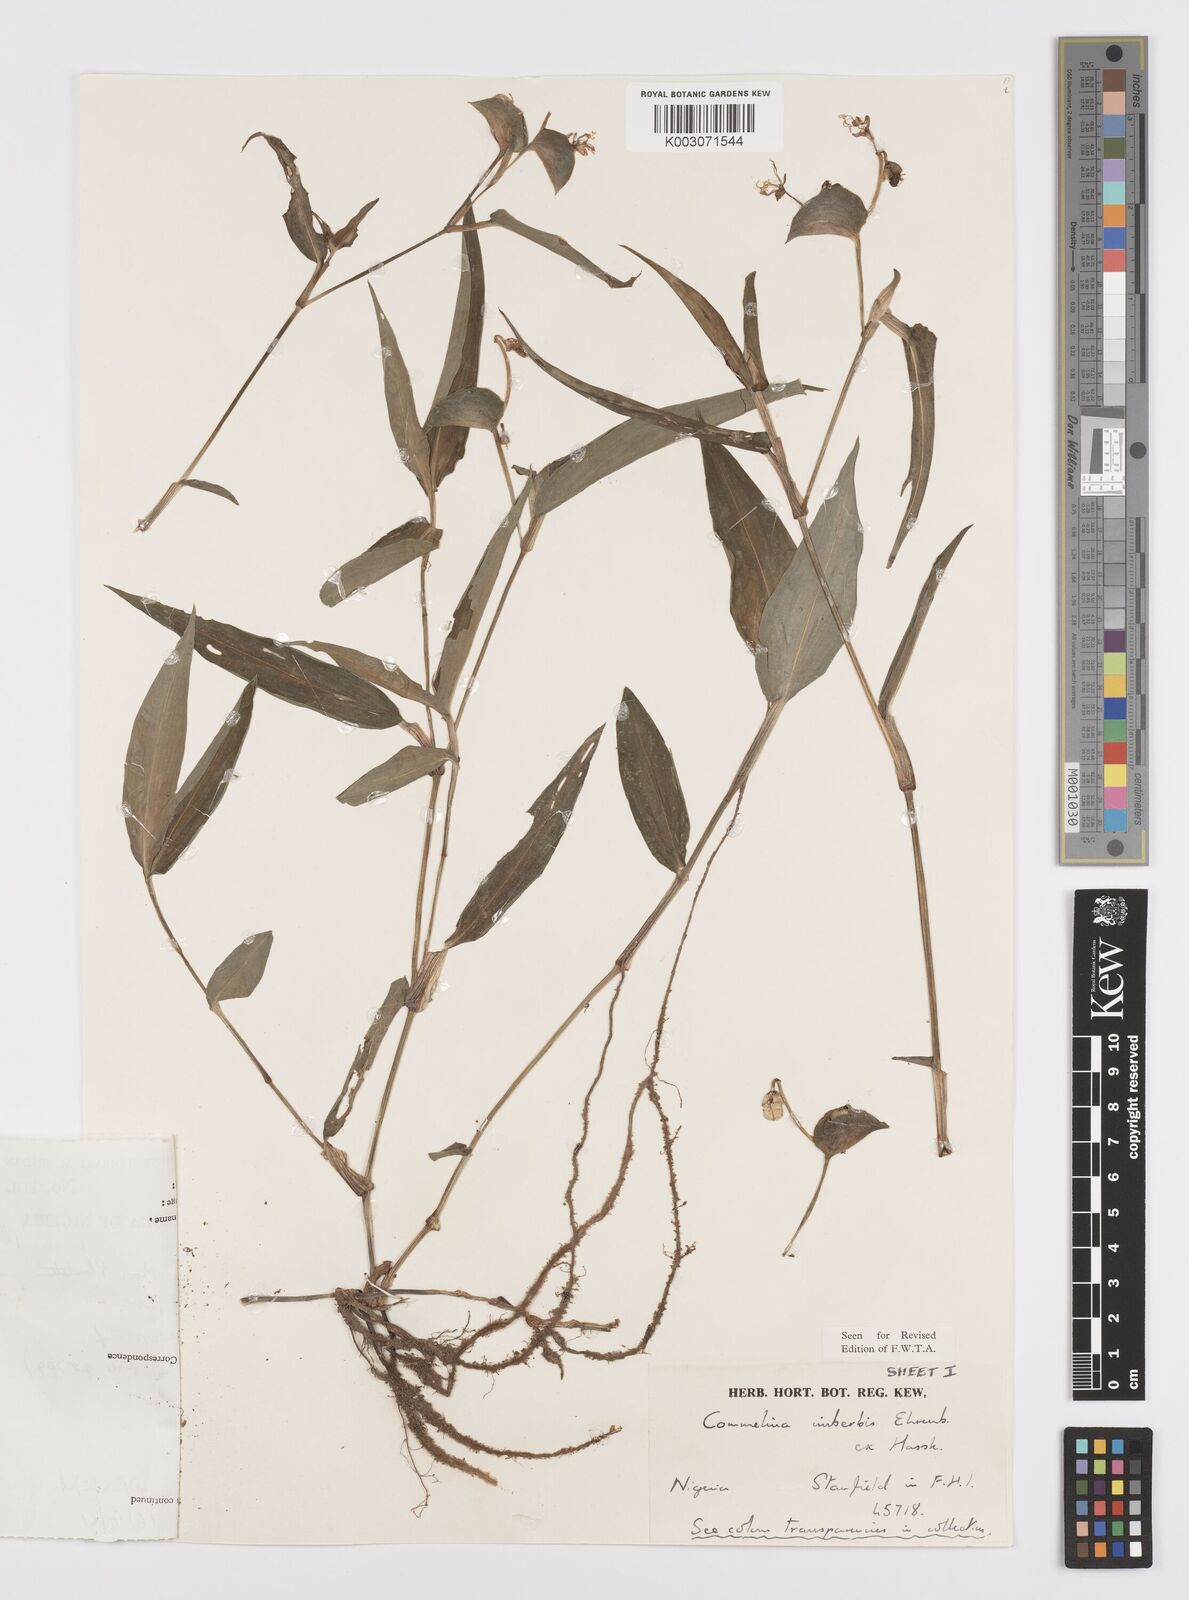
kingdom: Plantae
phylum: Tracheophyta
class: Liliopsida
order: Commelinales
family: Commelinaceae
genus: Commelina
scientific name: Commelina imberbis
